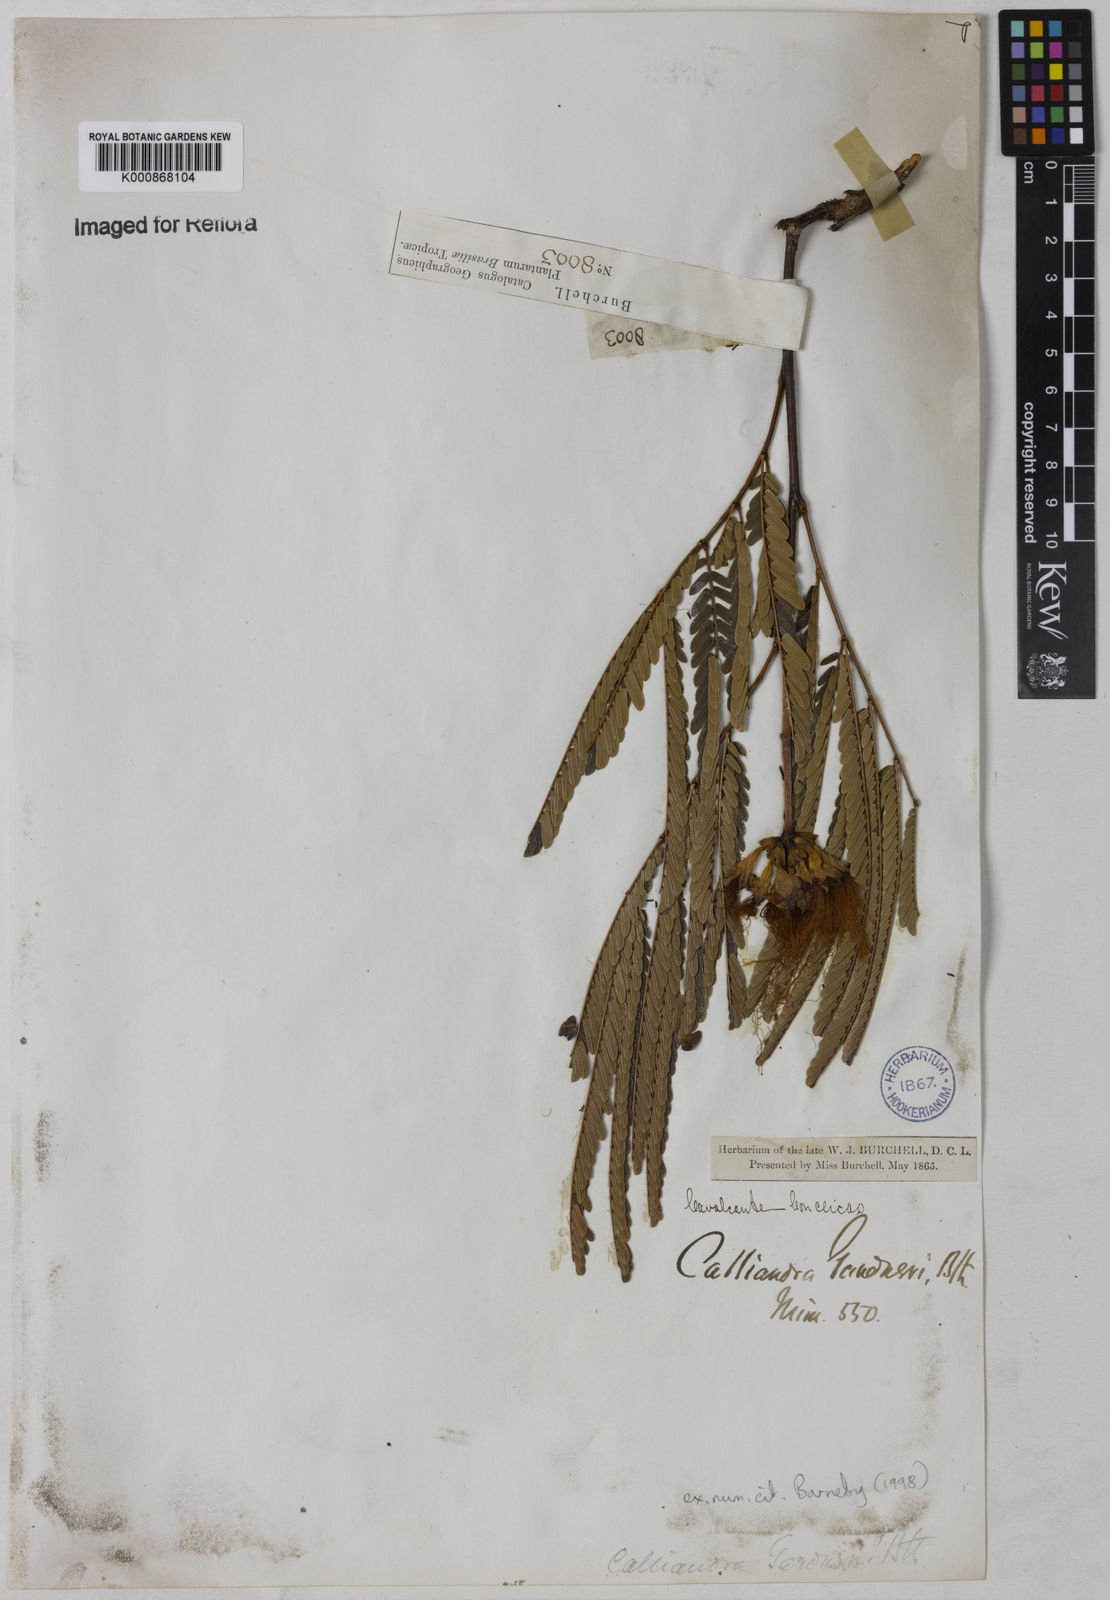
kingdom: Plantae
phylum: Tracheophyta
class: Magnoliopsida
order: Fabales
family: Fabaceae
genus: Calliandra
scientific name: Calliandra gardneri
